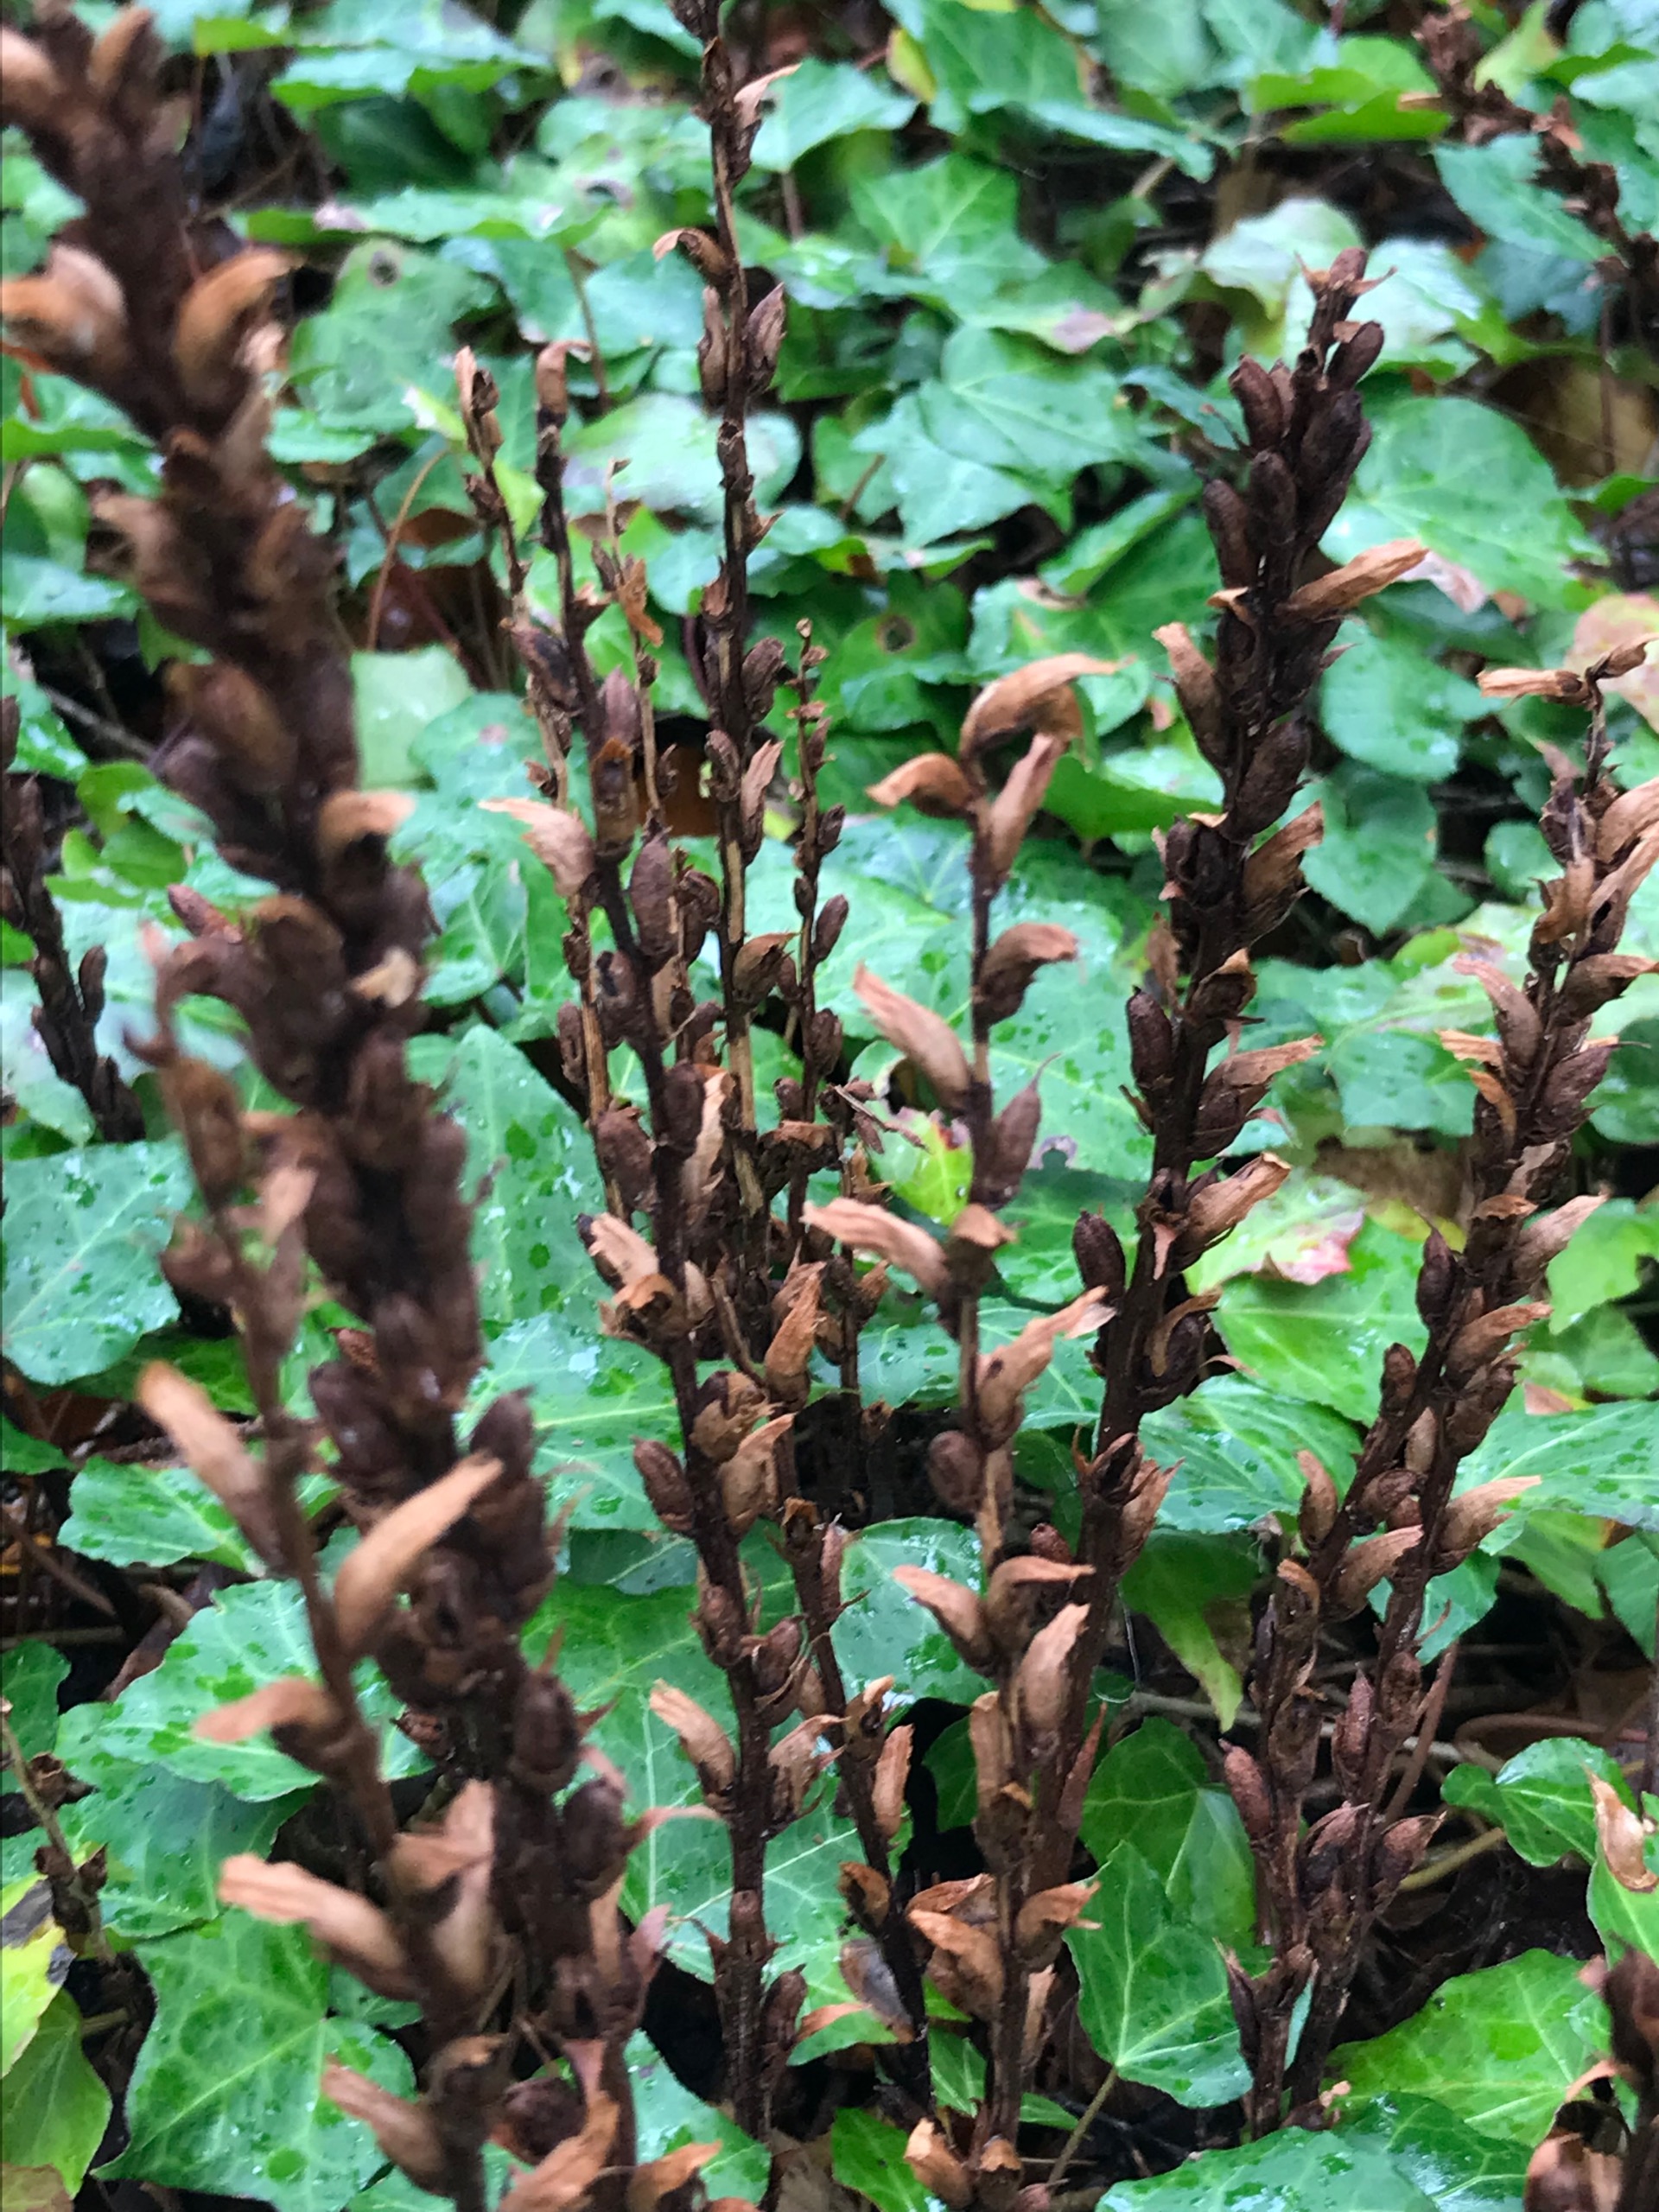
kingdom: Plantae
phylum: Tracheophyta
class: Magnoliopsida
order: Lamiales
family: Orobanchaceae
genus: Orobanche
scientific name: Orobanche hederae
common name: Vedbend-gyvelkvæler
